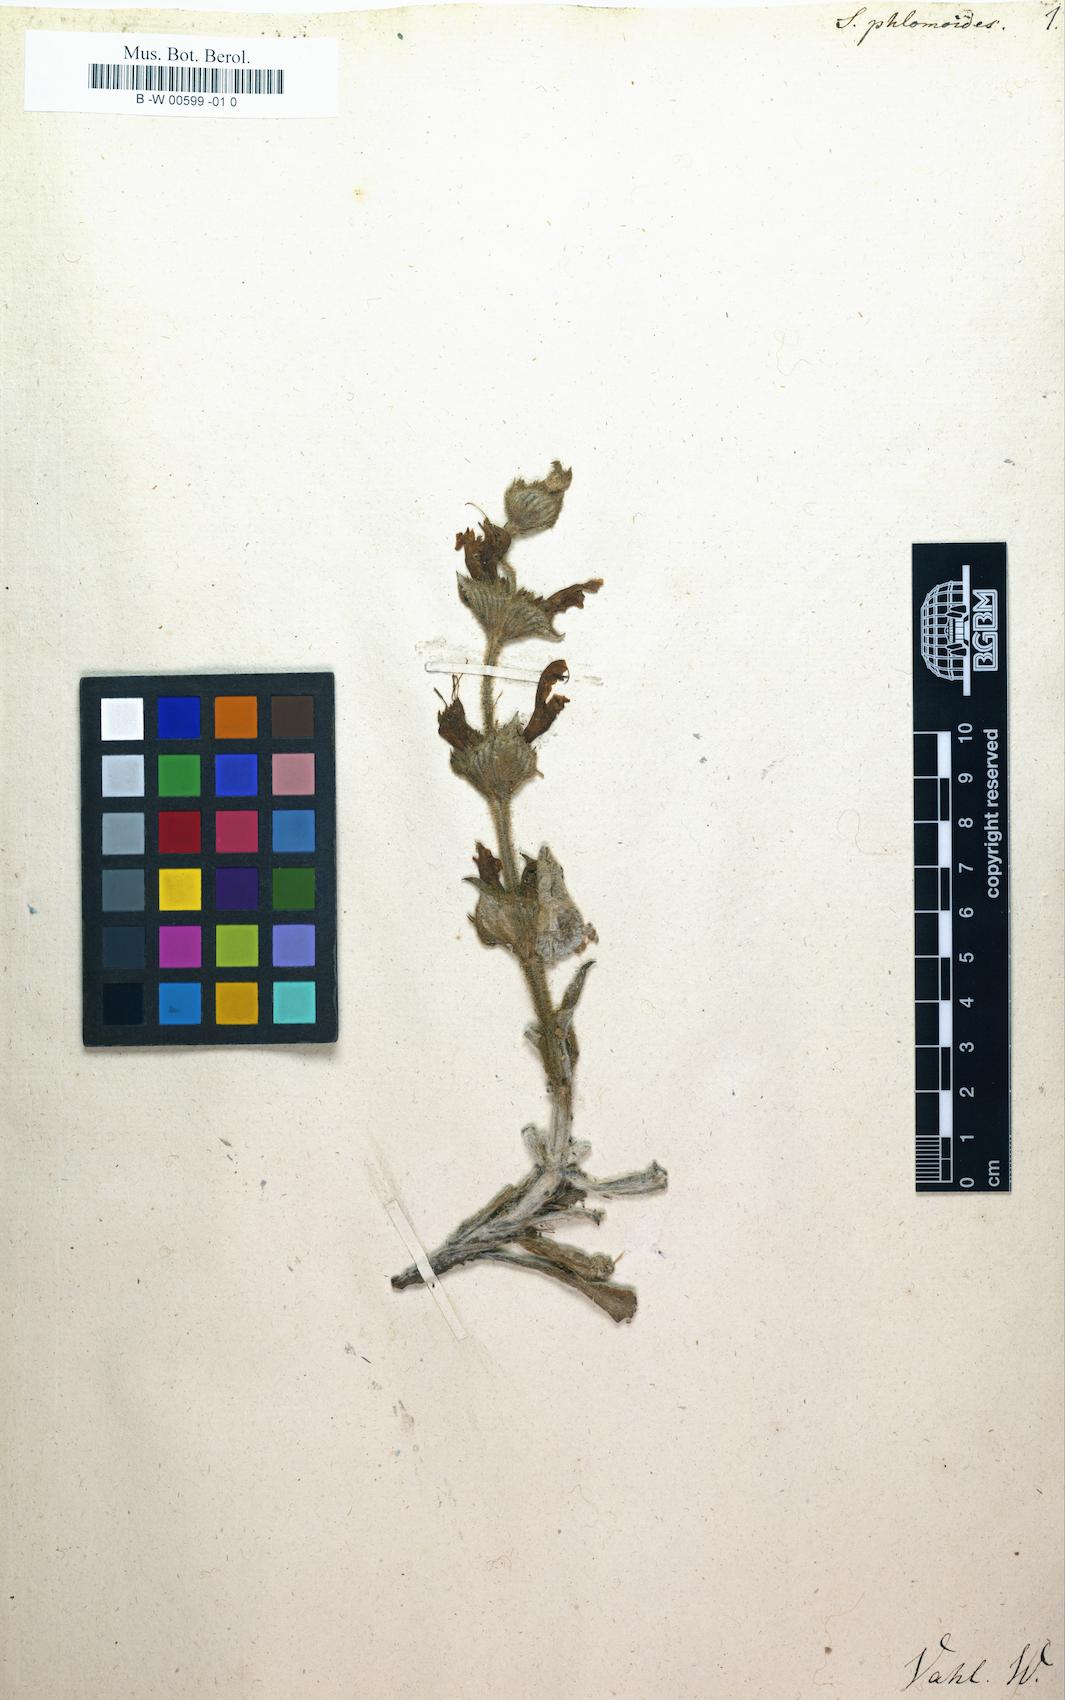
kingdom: Plantae
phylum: Tracheophyta
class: Magnoliopsida
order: Lamiales
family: Lamiaceae
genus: Salvia
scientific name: Salvia phlomoides
